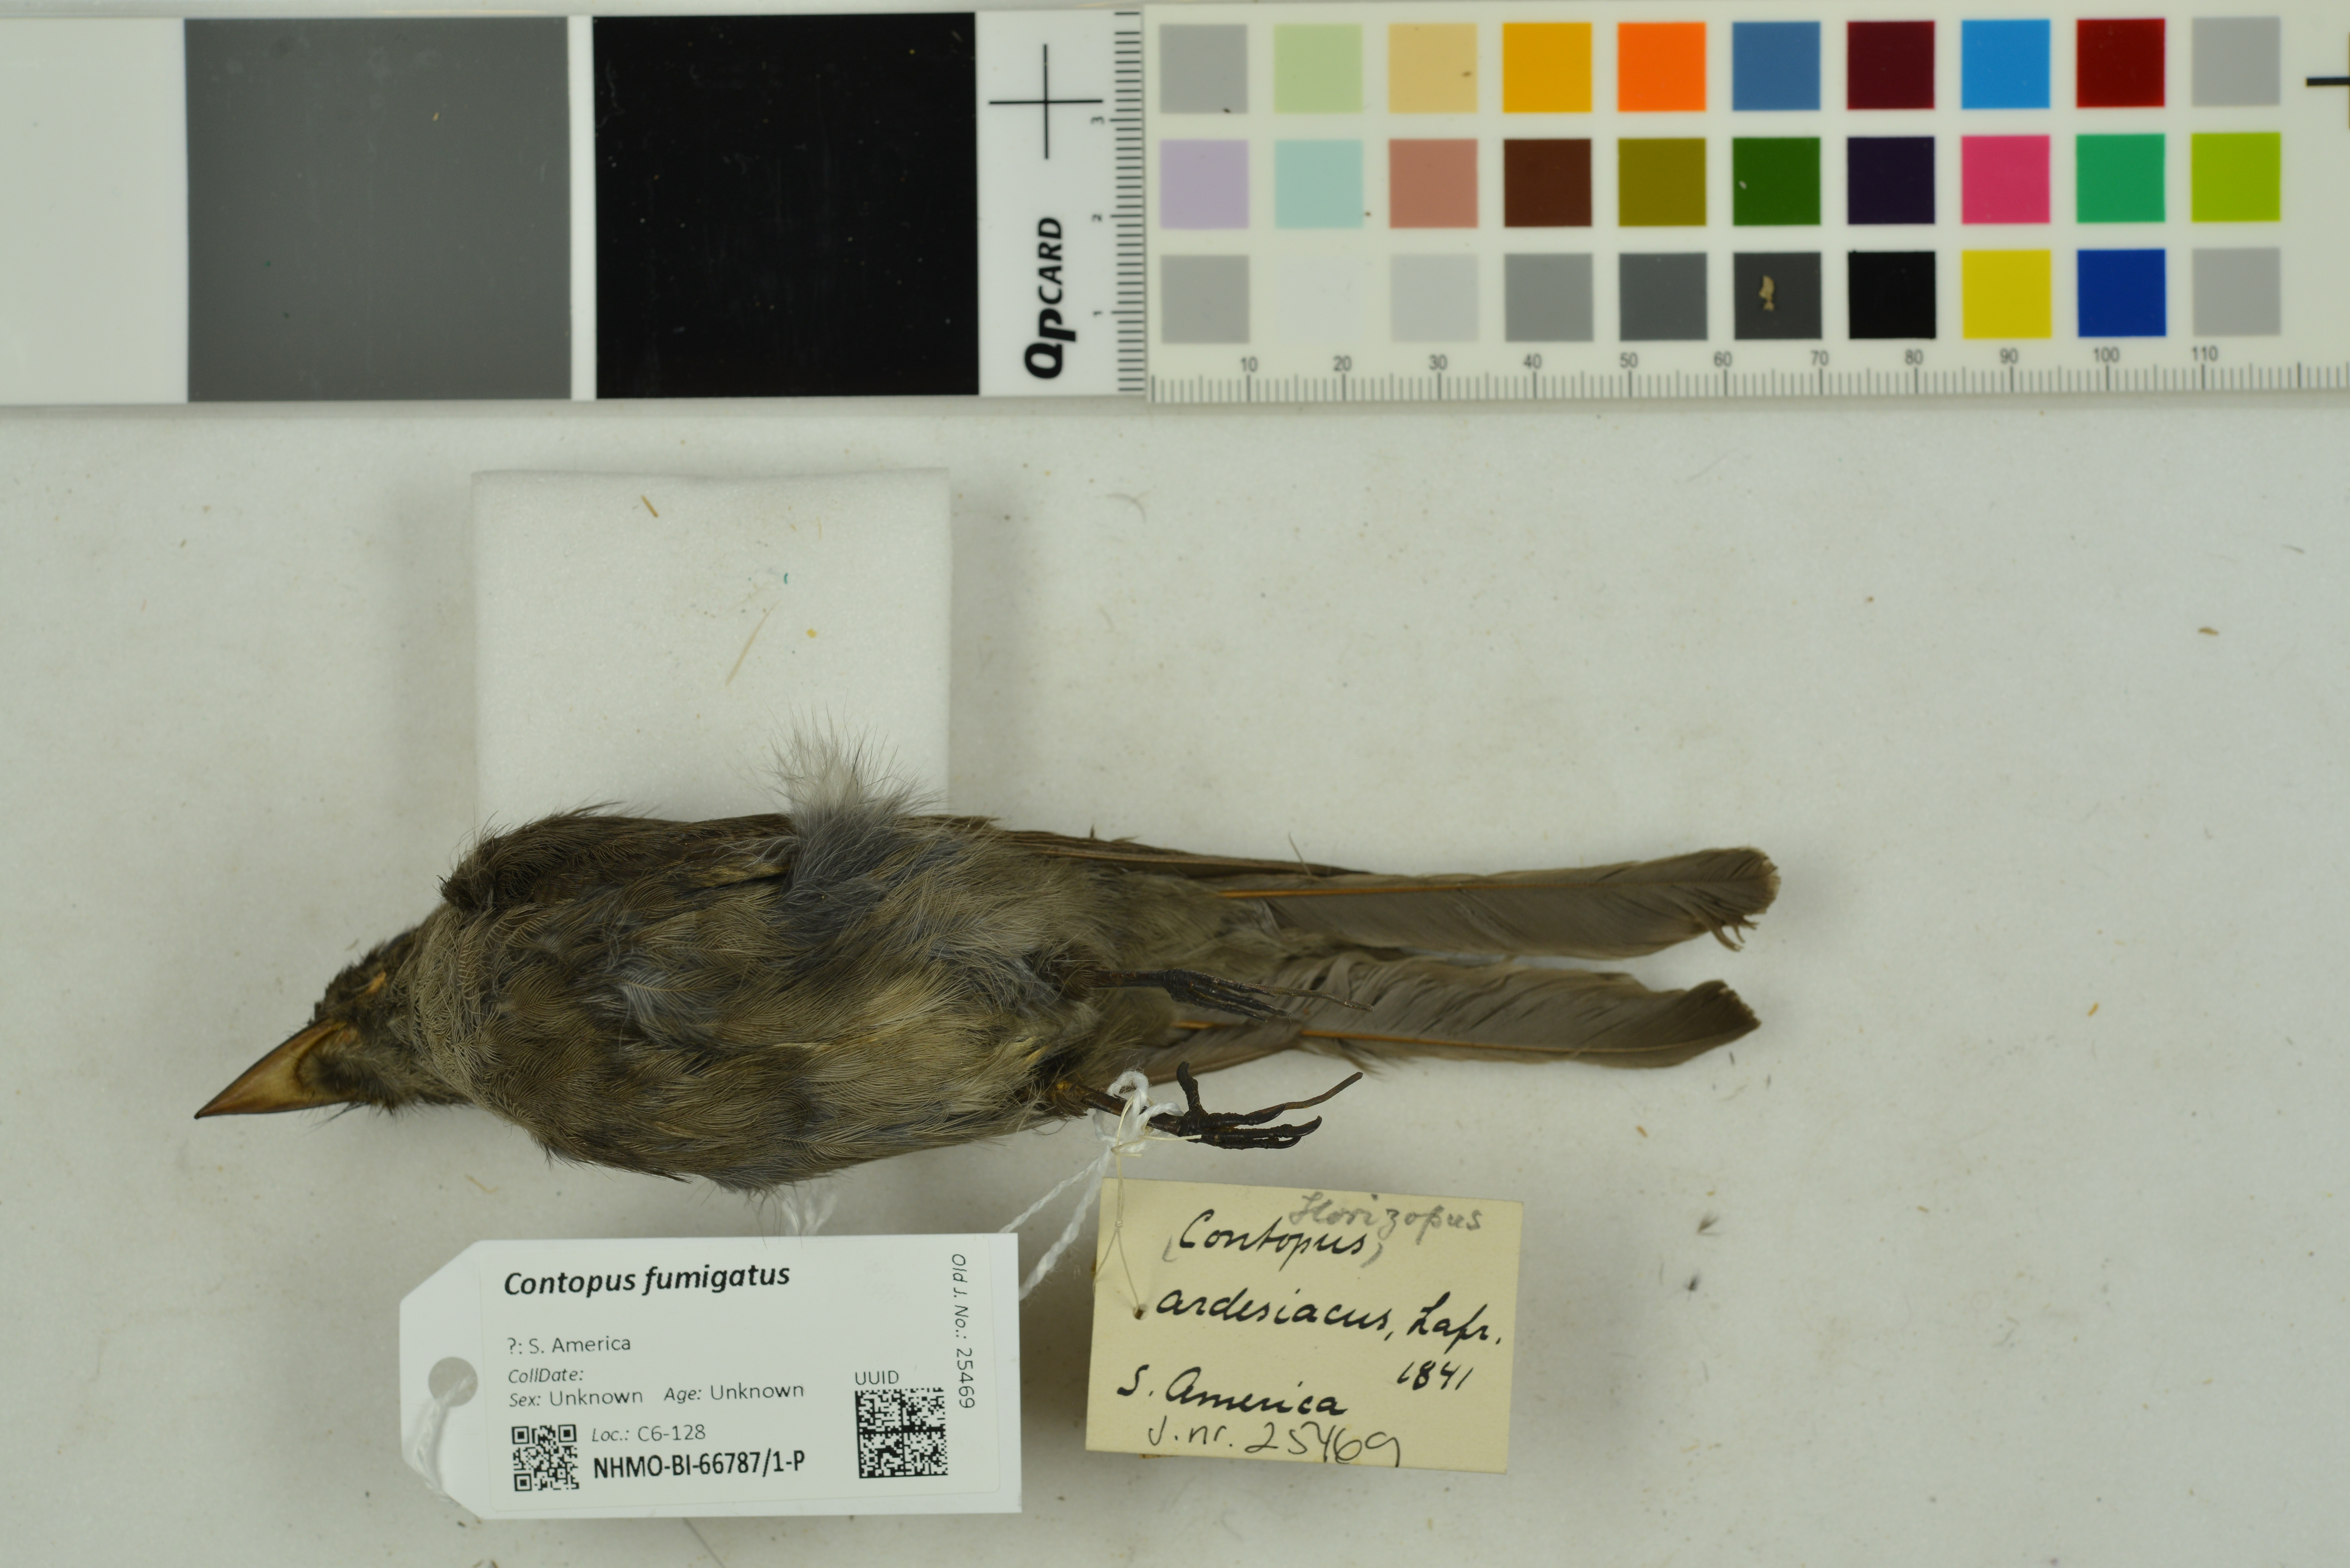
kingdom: Animalia
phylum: Chordata
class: Aves
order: Passeriformes
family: Tyrannidae
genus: Contopus
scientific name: Contopus fumigatus
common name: Smoke-colored pewee
